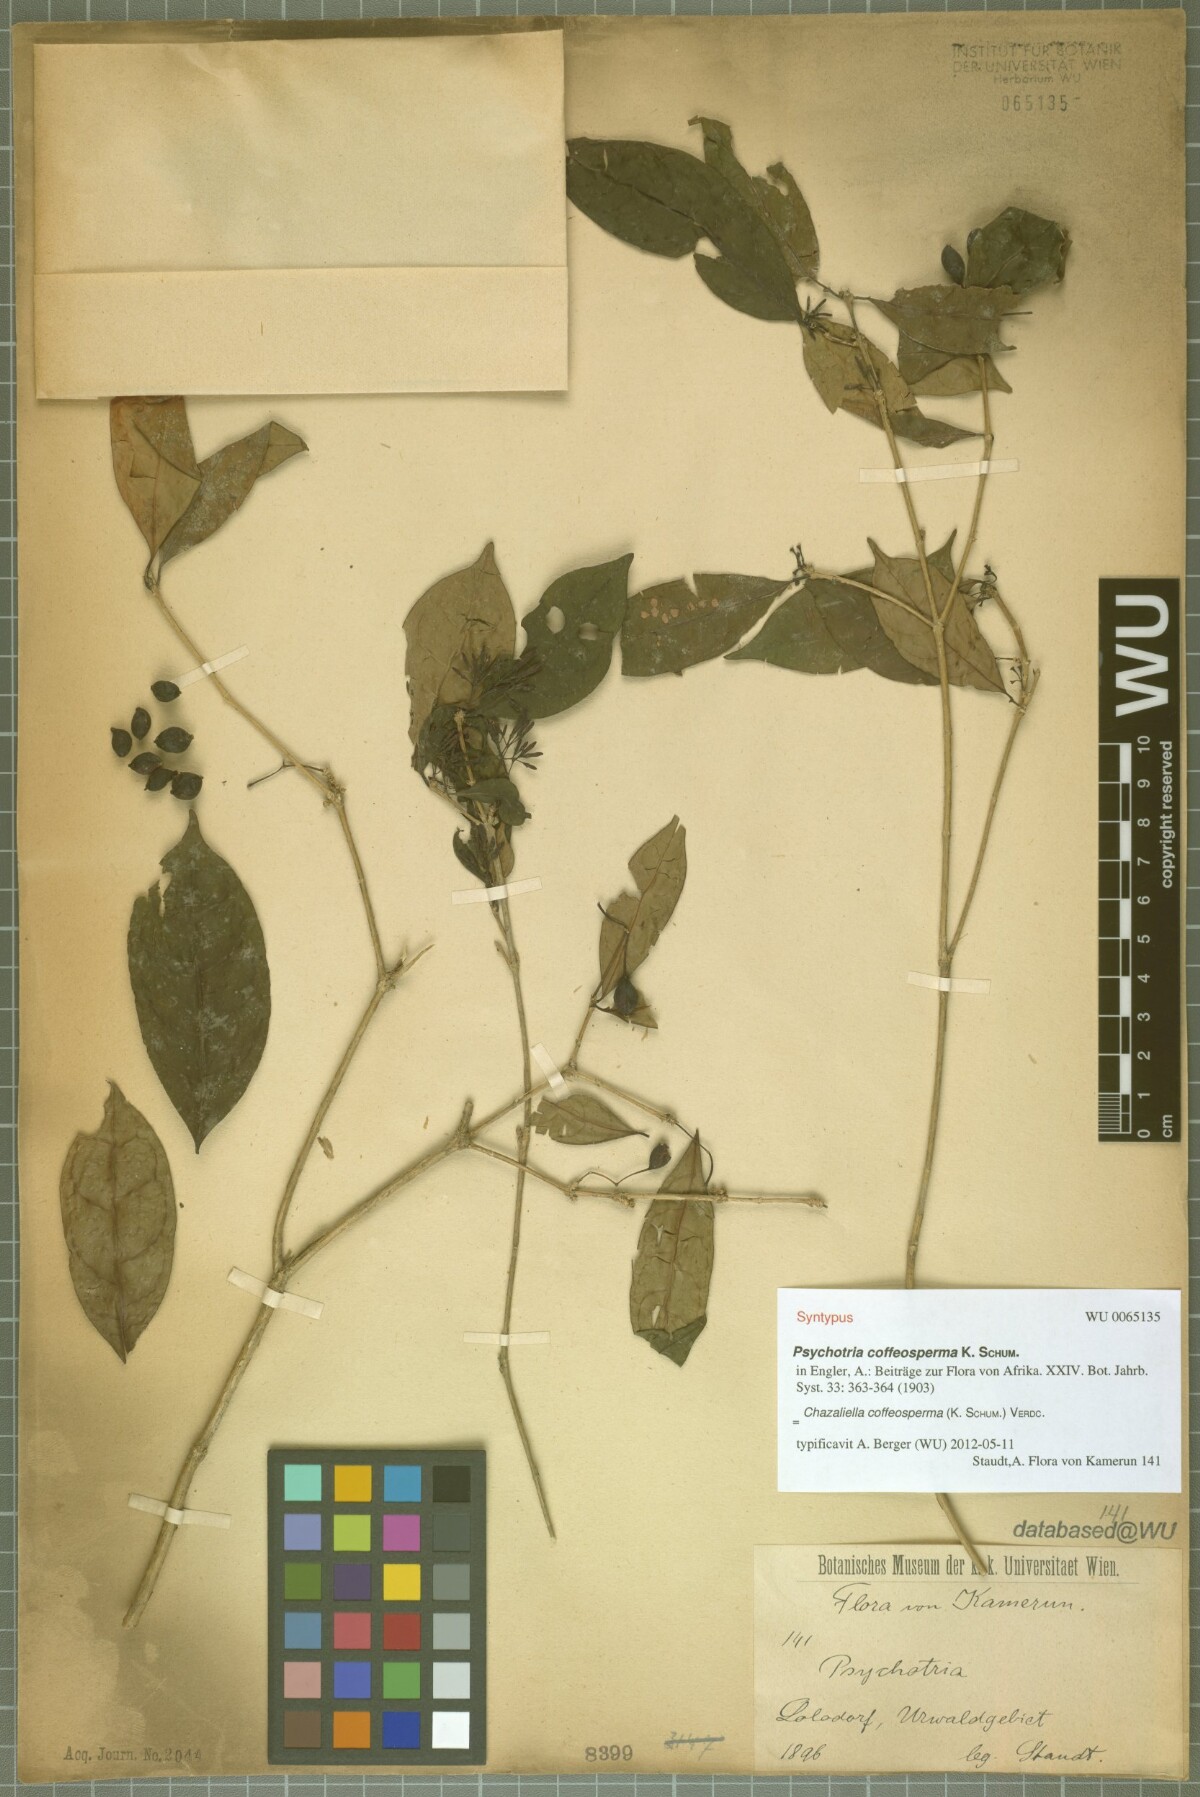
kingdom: Plantae
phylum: Tracheophyta
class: Magnoliopsida
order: Gentianales
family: Rubiaceae
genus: Eumachia
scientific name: Eumachia coffeosperma
